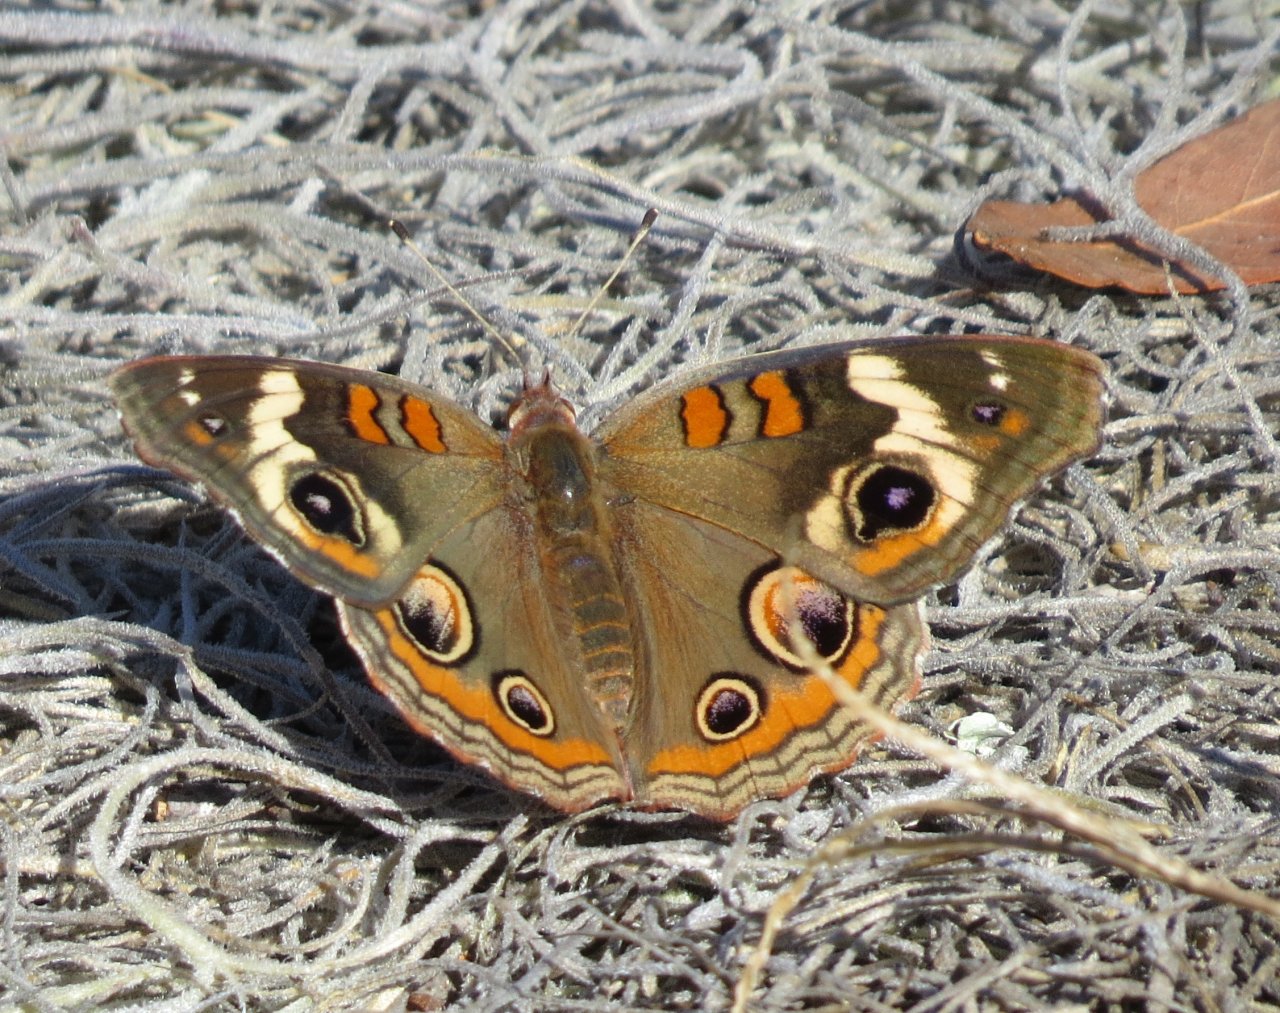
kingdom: Animalia
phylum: Arthropoda
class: Insecta
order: Lepidoptera
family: Nymphalidae
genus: Junonia
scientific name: Junonia coenia
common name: Common Buckeye
